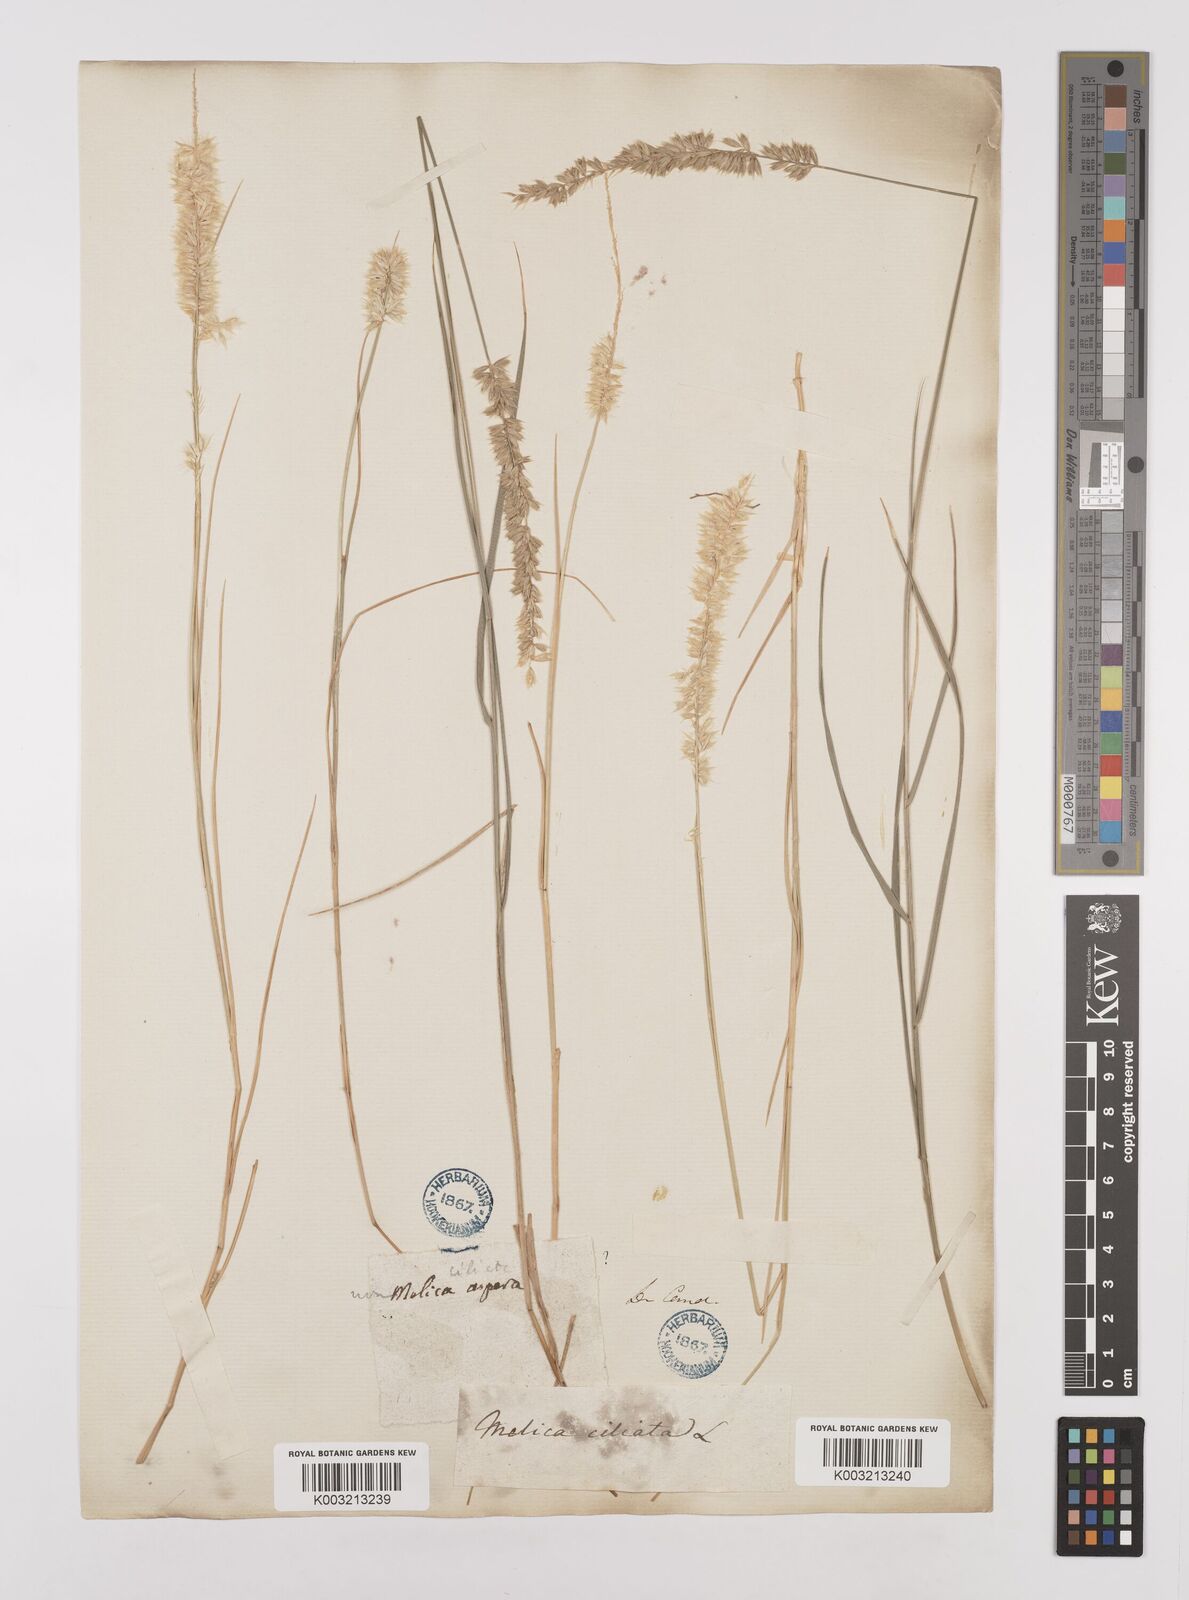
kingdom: Plantae
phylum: Tracheophyta
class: Liliopsida
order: Poales
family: Poaceae
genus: Melica
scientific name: Melica ciliata
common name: Hairy melicgrass
